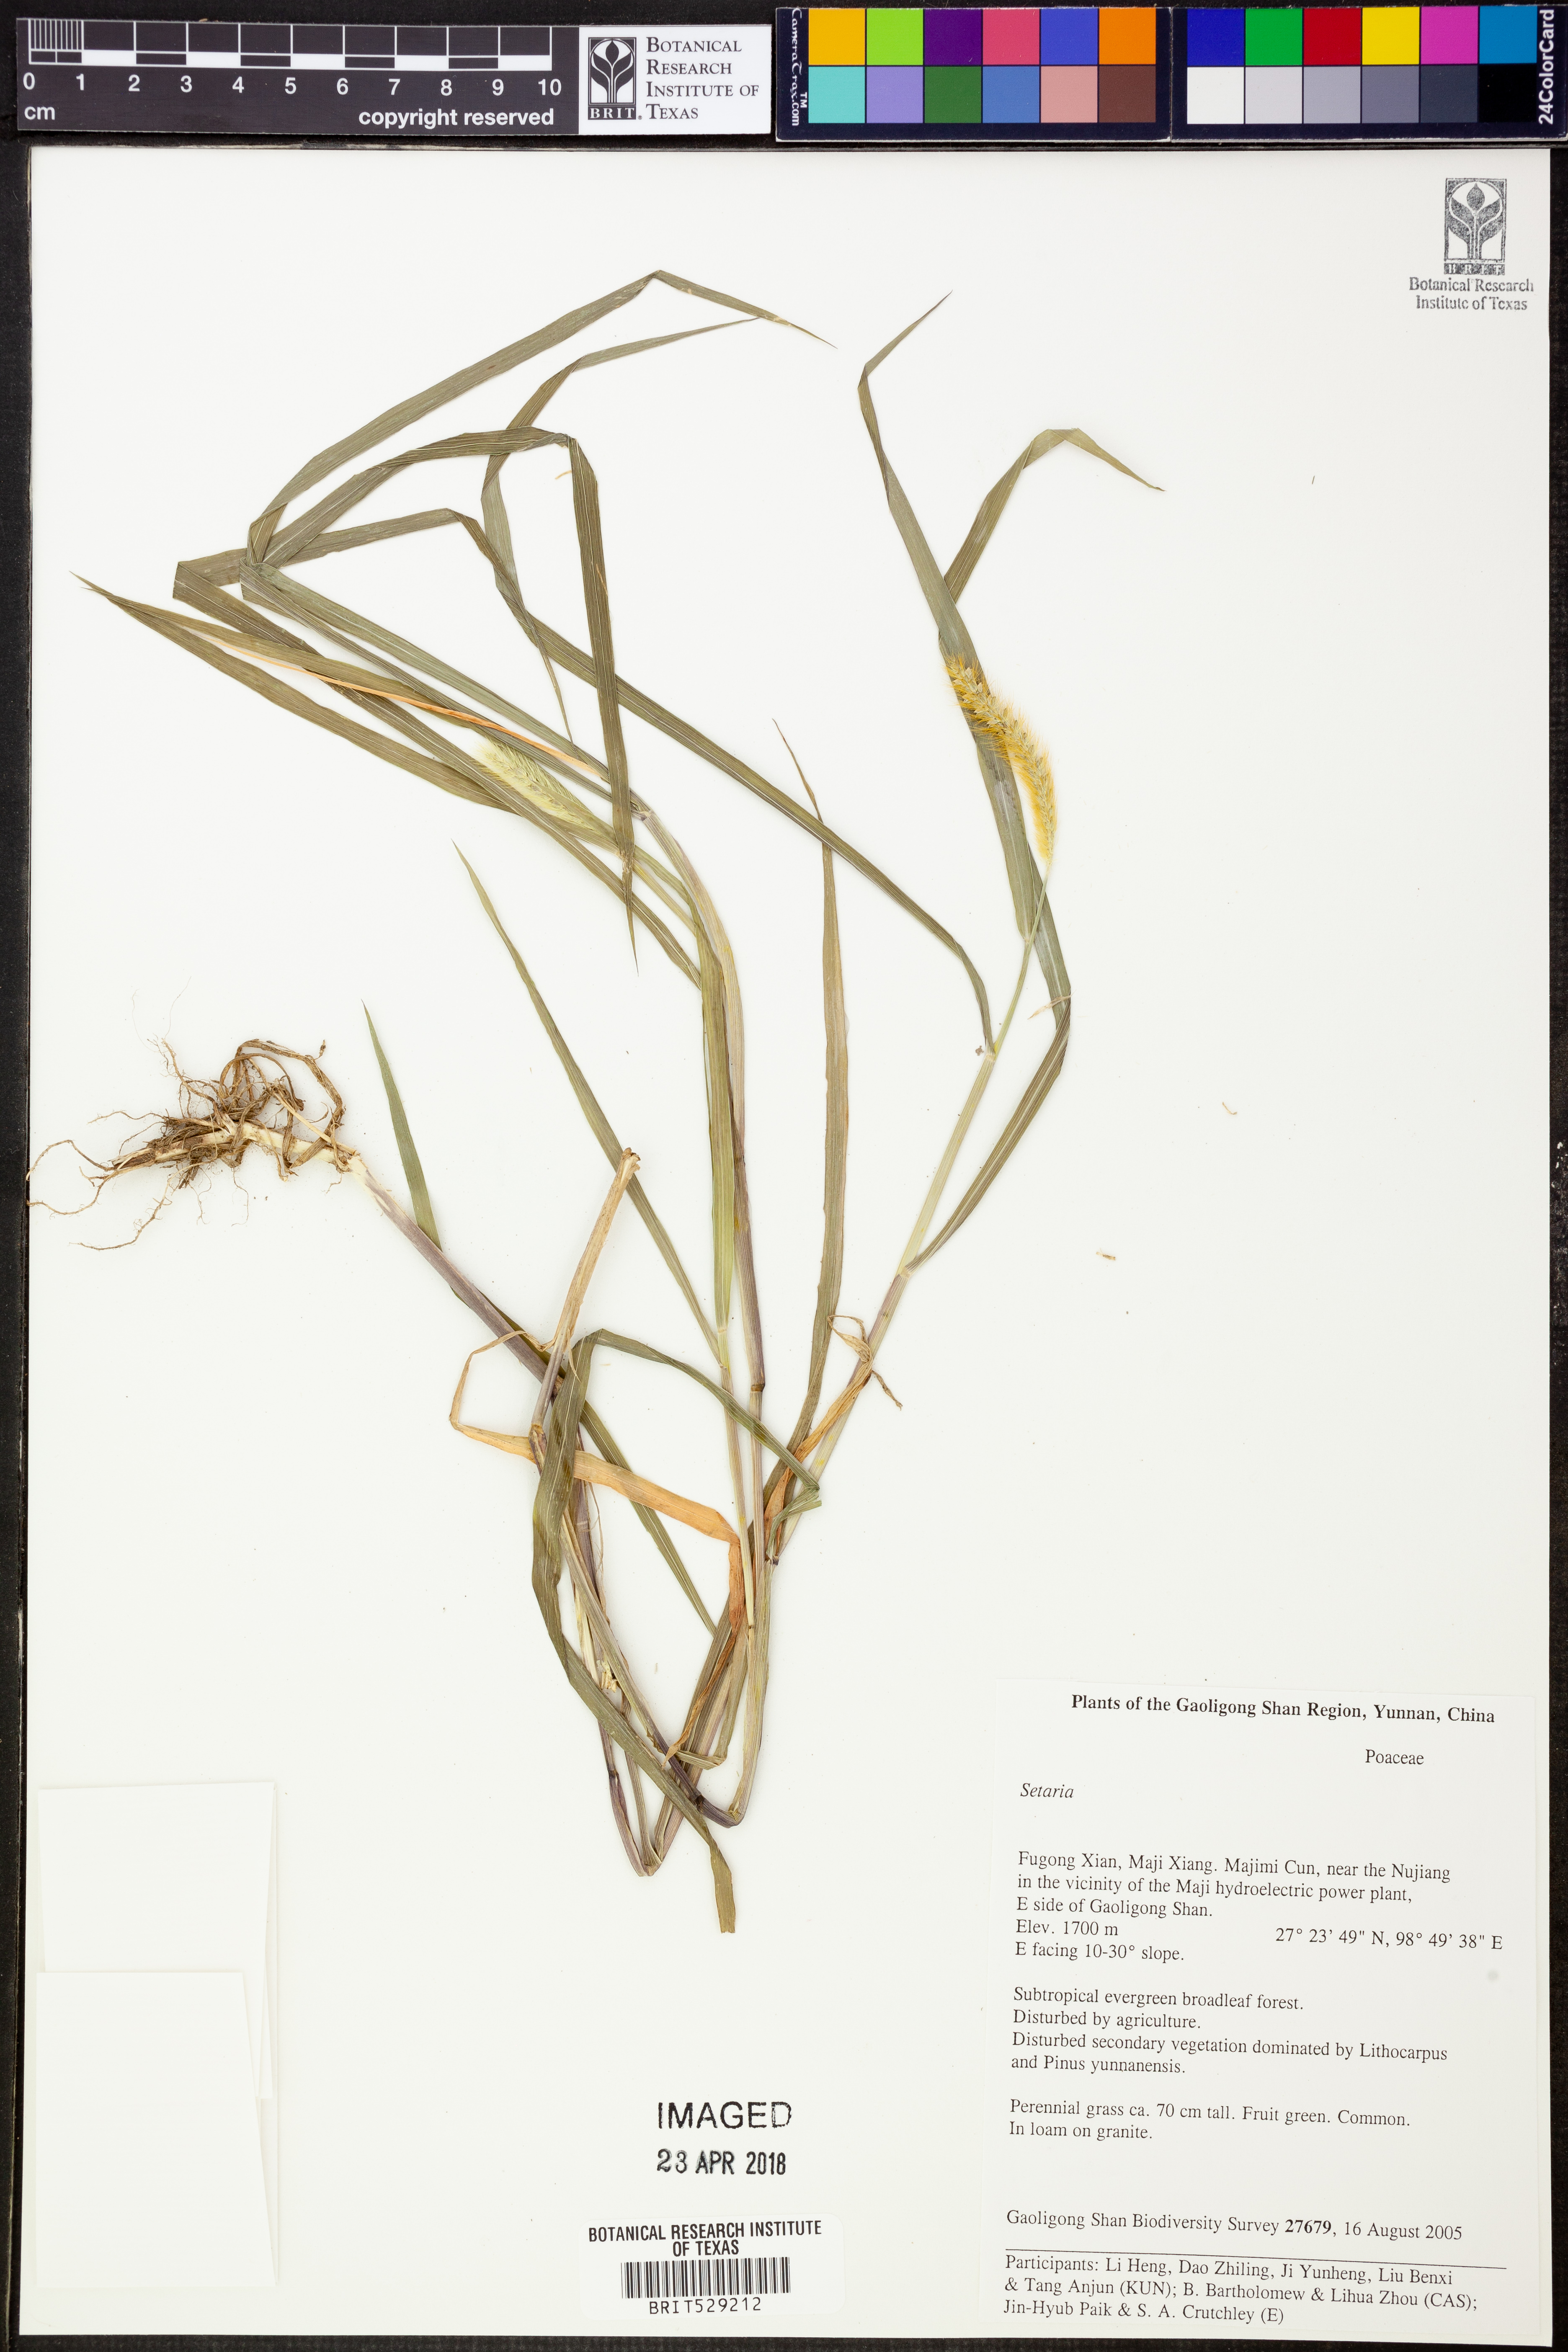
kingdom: Plantae
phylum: Tracheophyta
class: Liliopsida
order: Poales
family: Poaceae
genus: Setaria
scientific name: Setaria
